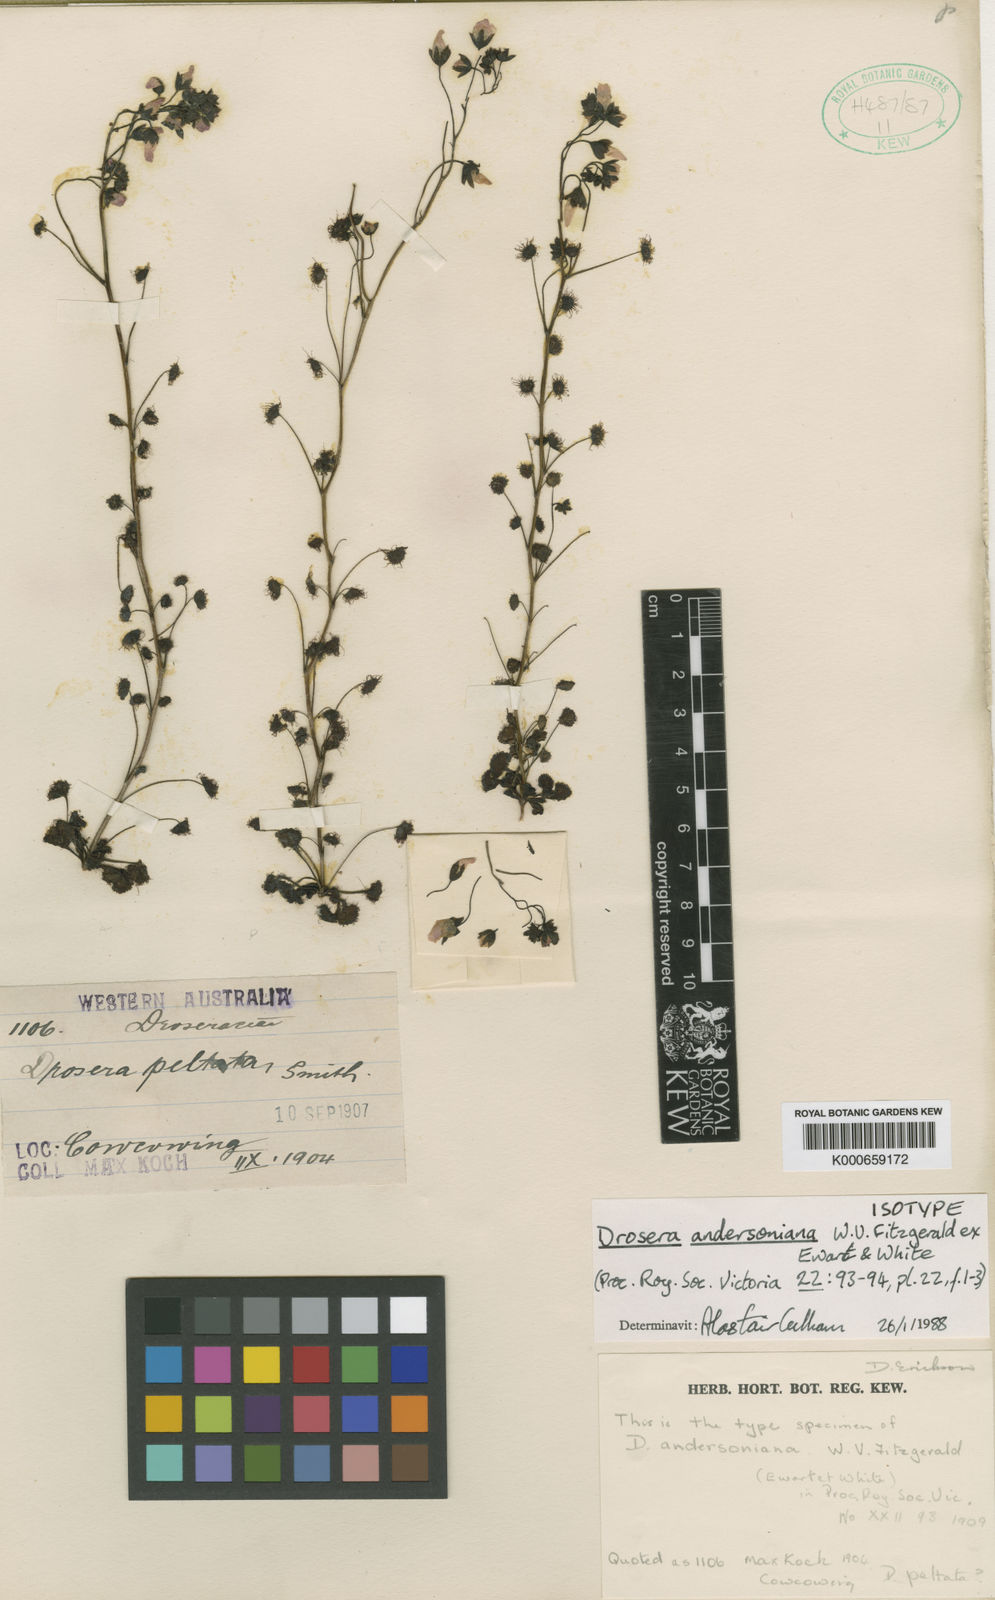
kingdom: Plantae
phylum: Tracheophyta
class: Magnoliopsida
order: Caryophyllales
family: Droseraceae
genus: Drosera
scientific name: Drosera andersoniana
